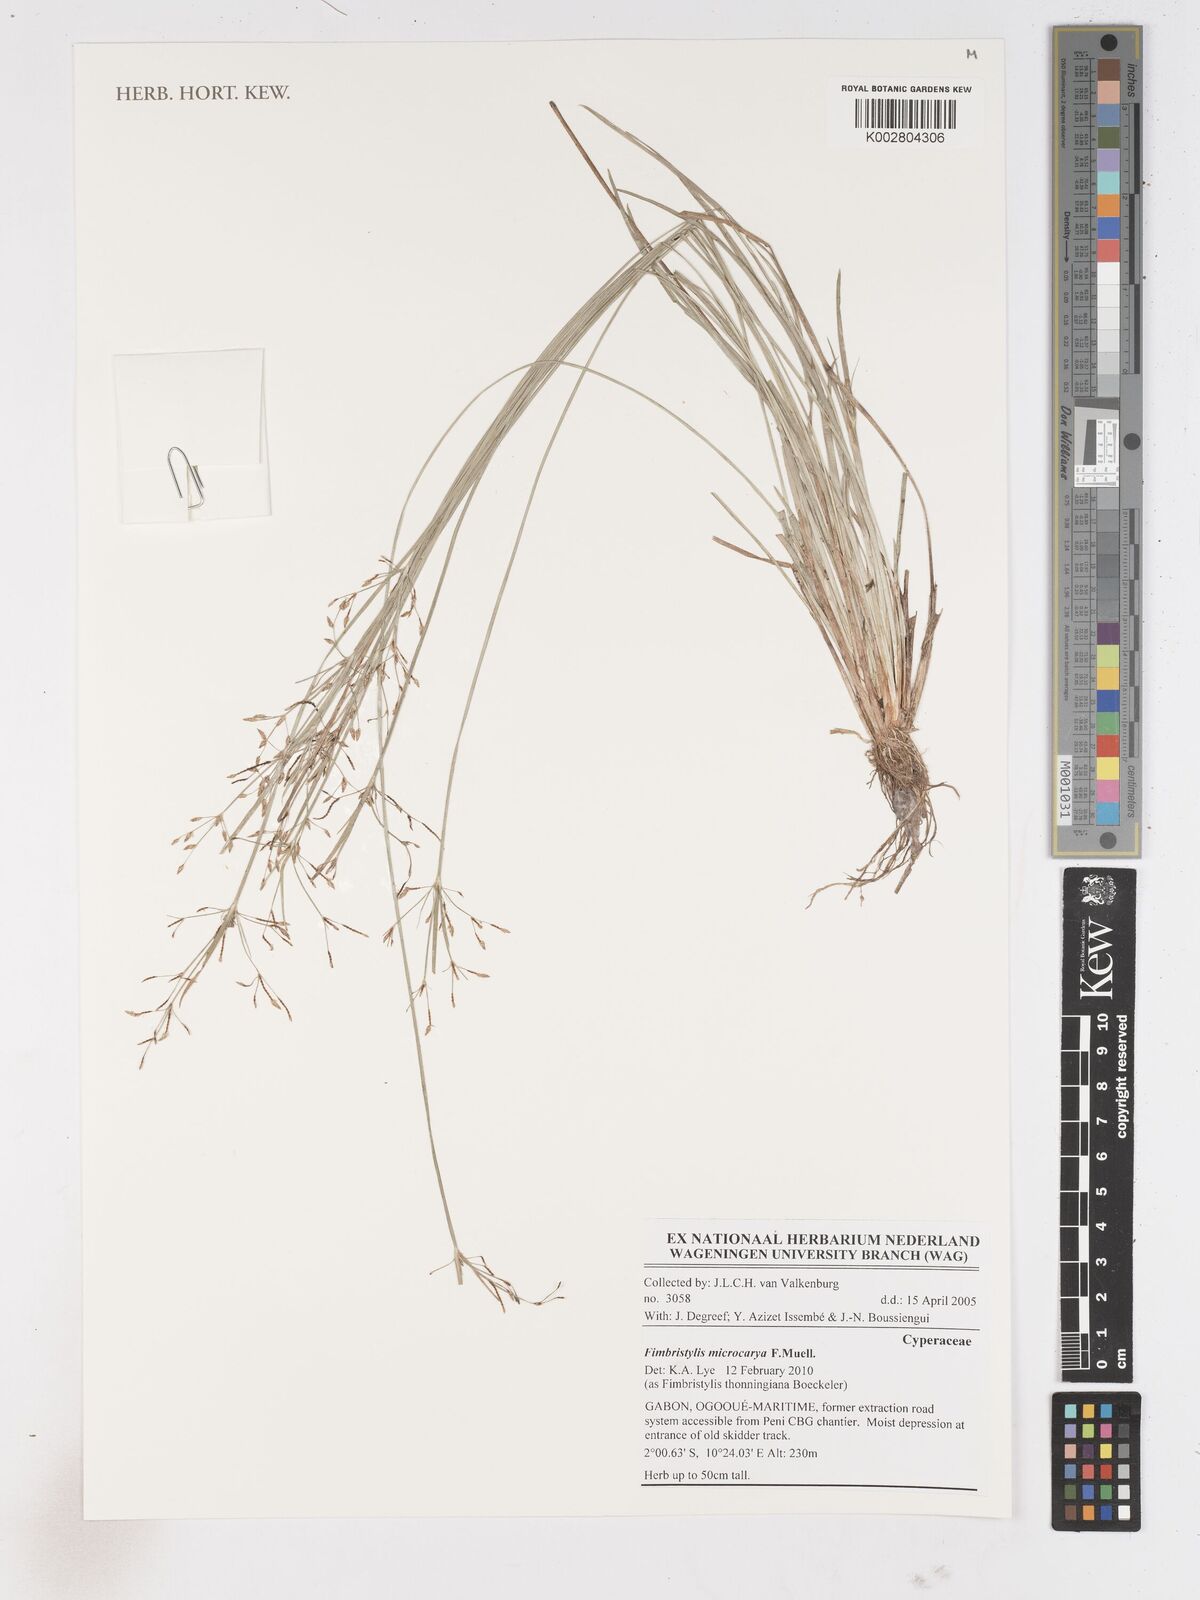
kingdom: Plantae
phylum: Tracheophyta
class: Liliopsida
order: Poales
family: Cyperaceae
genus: Fimbristylis
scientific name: Fimbristylis microcarya
